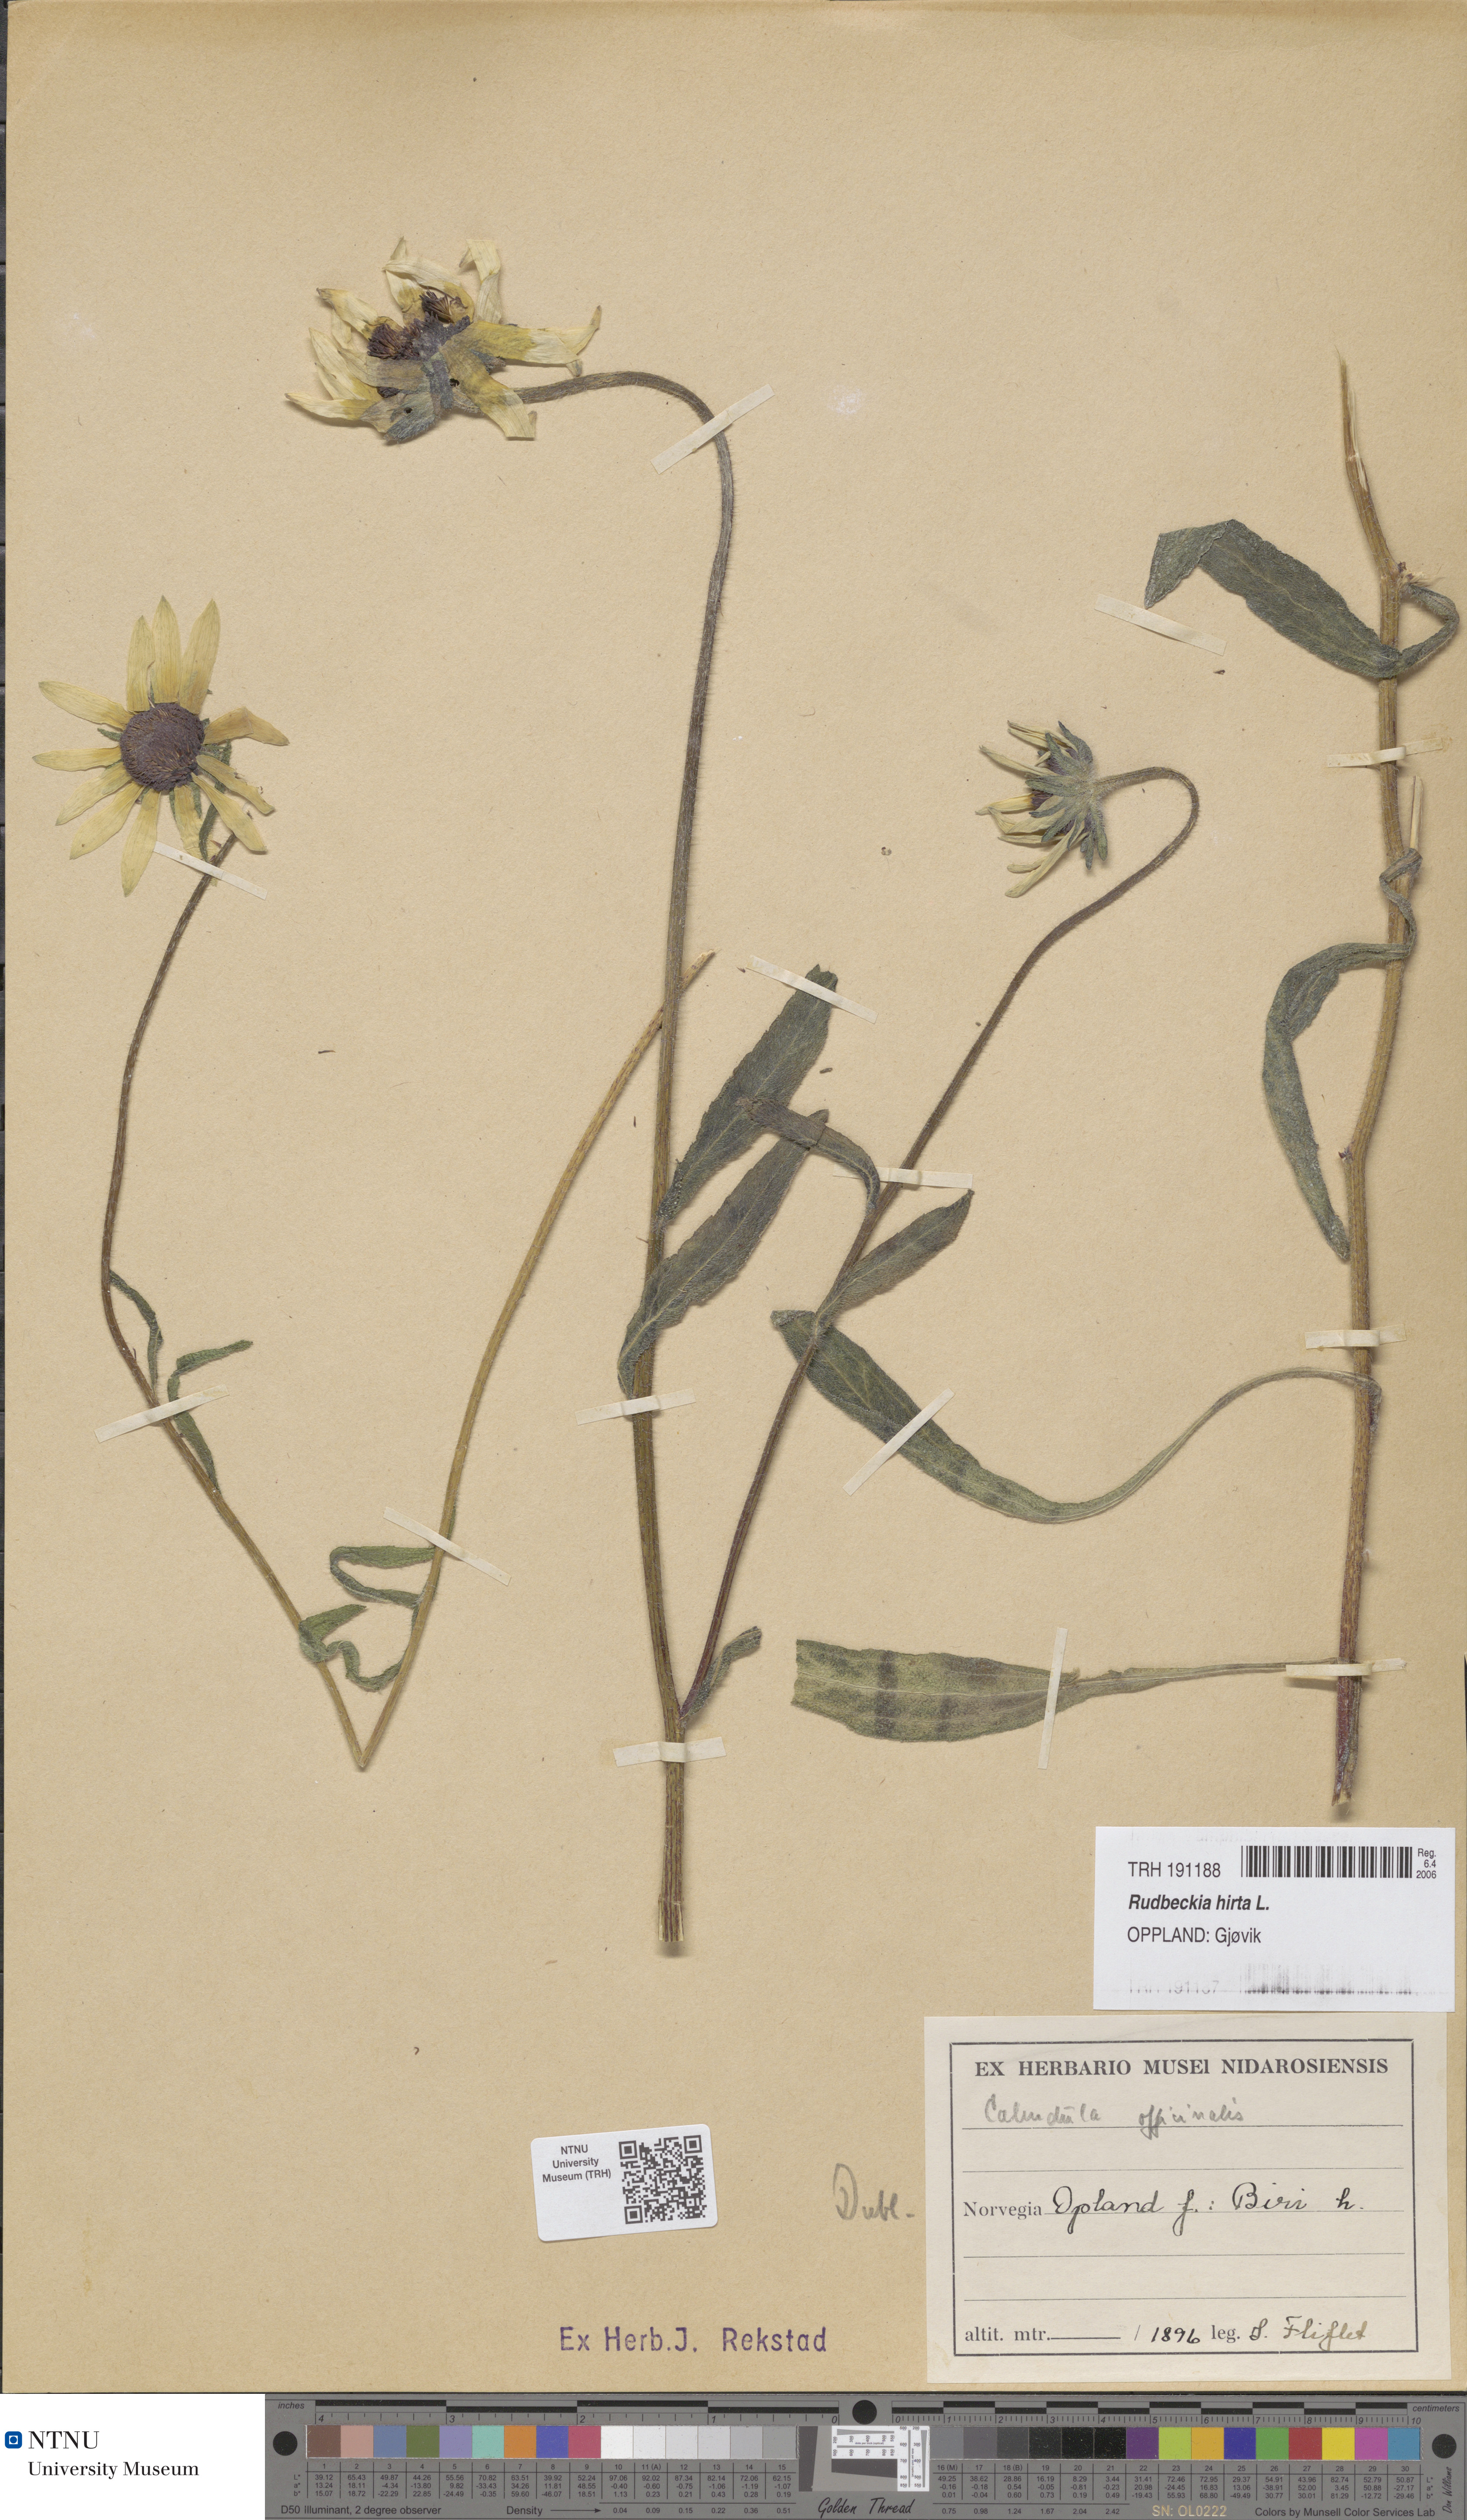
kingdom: Plantae
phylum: Tracheophyta
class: Magnoliopsida
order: Asterales
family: Asteraceae
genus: Rudbeckia
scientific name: Rudbeckia hirta
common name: Black-eyed-susan
